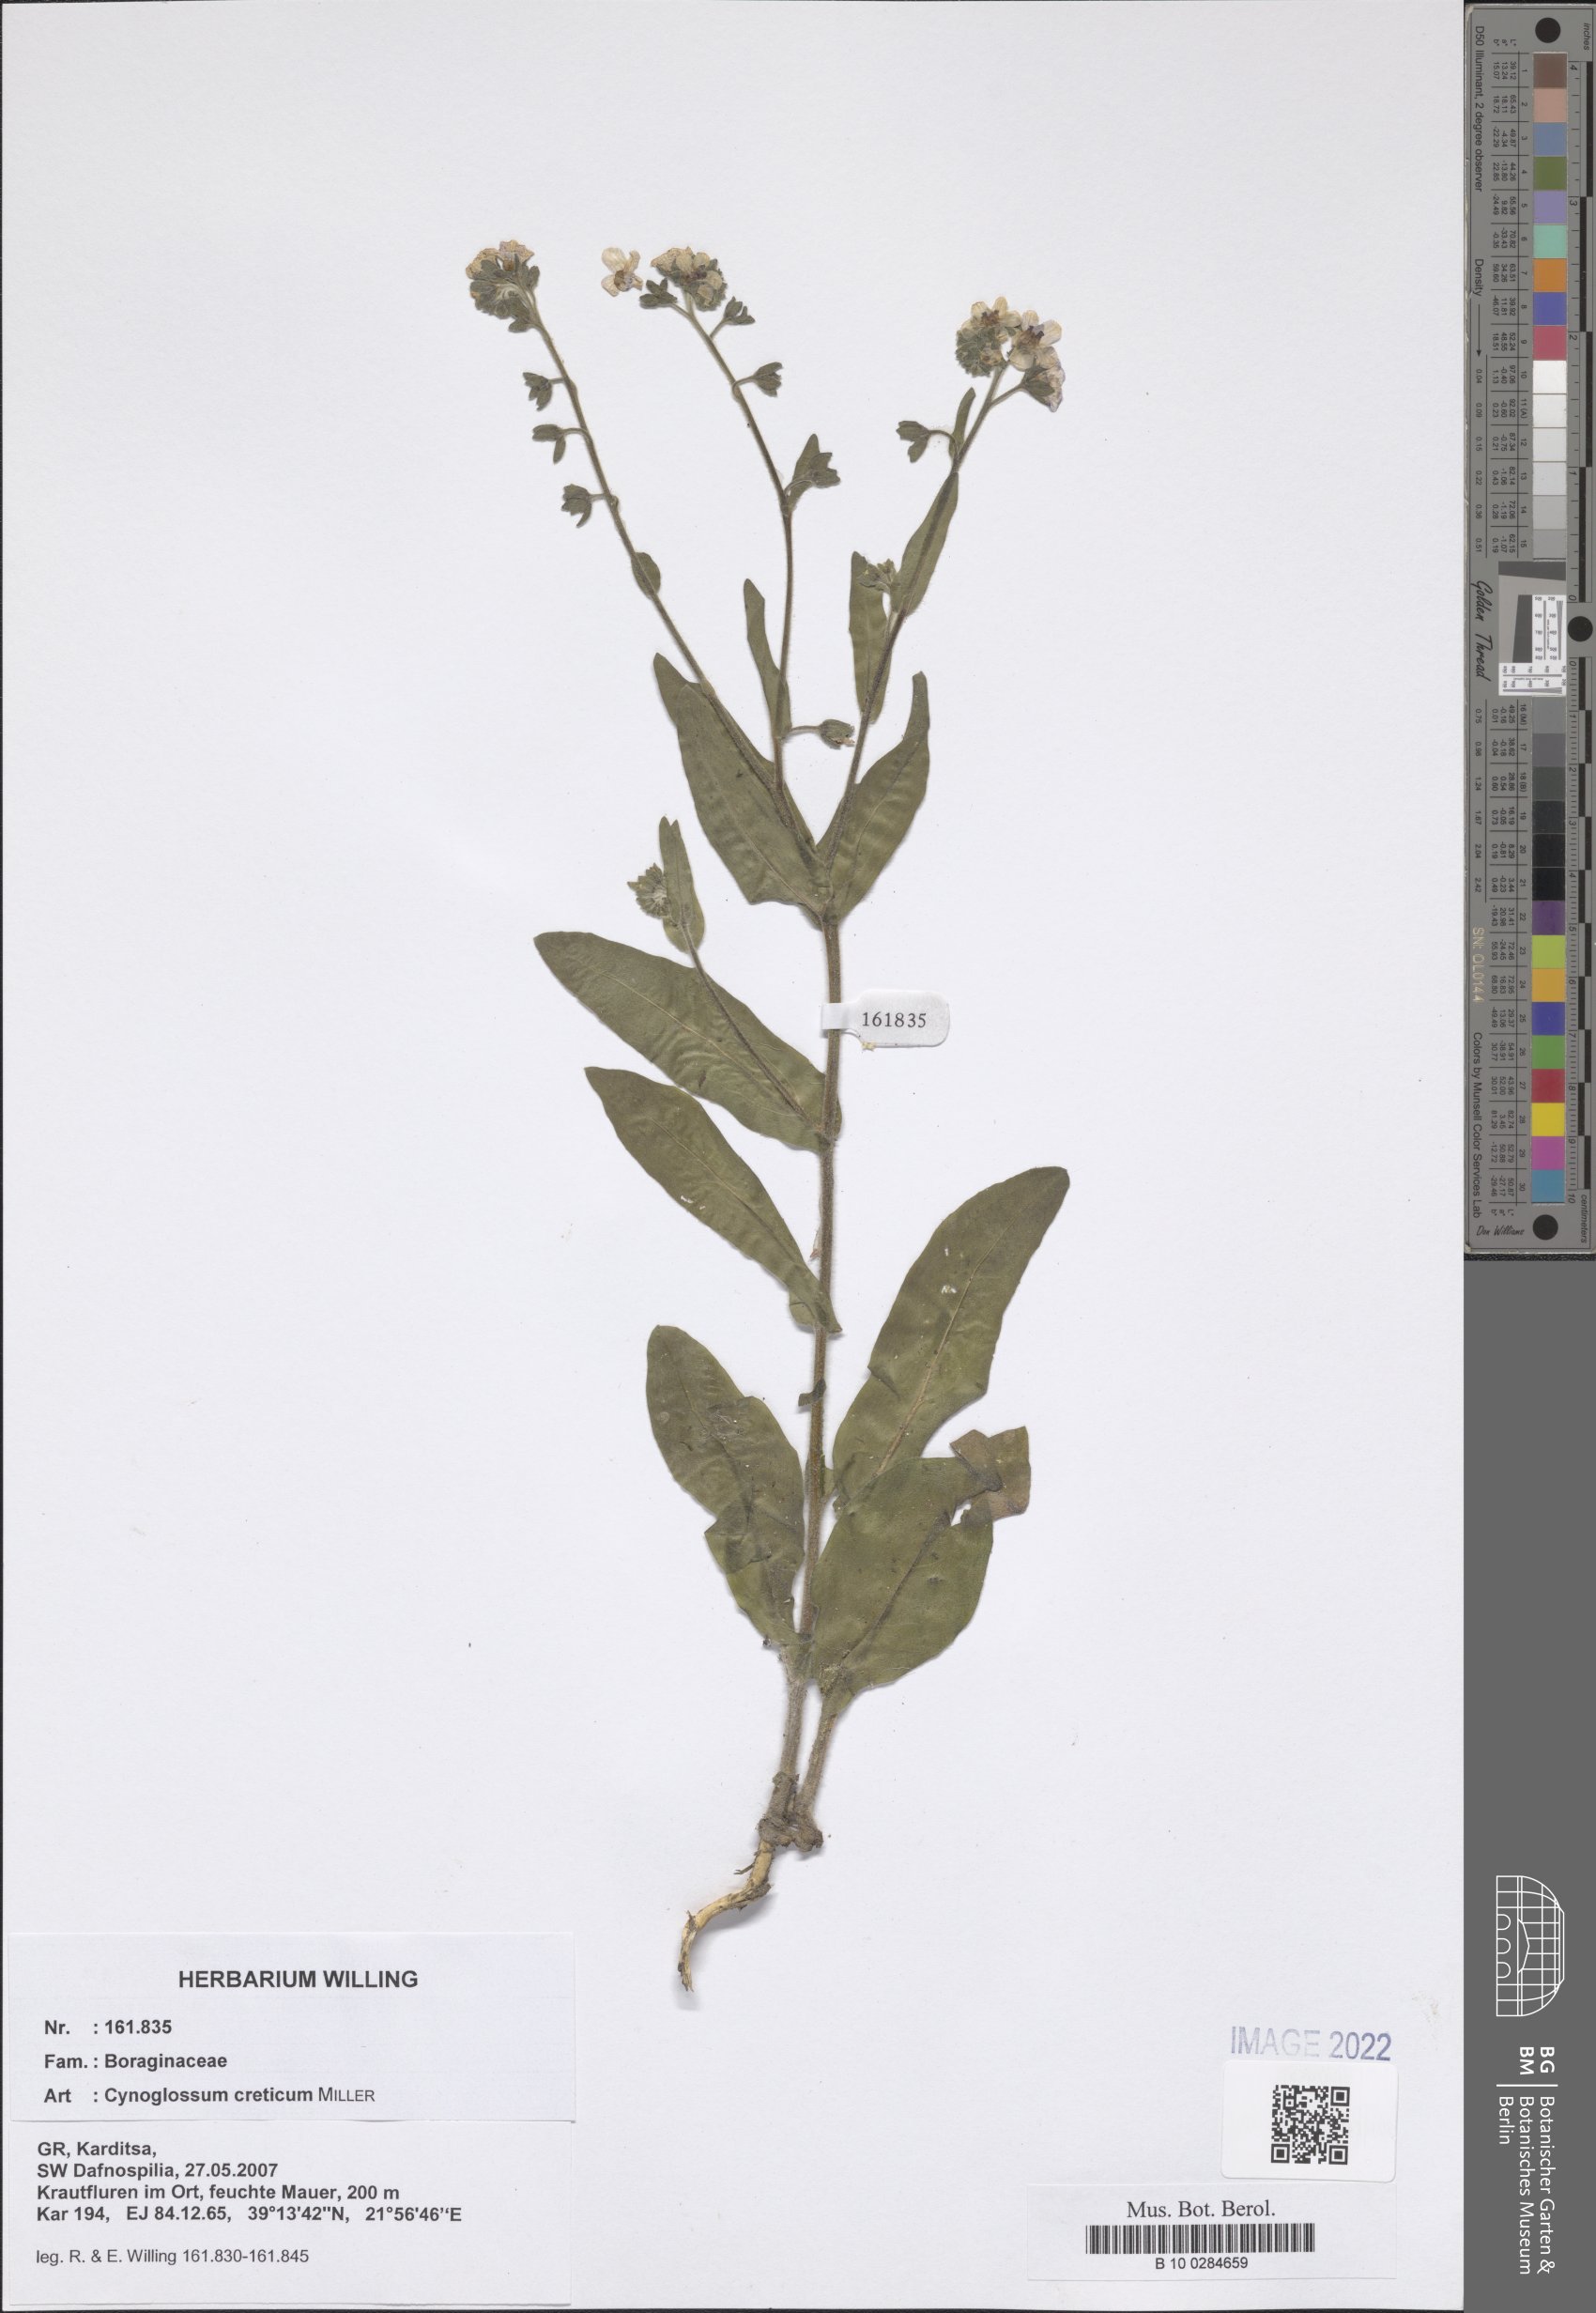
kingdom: Plantae
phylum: Tracheophyta
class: Magnoliopsida
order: Boraginales
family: Boraginaceae
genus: Cynoglossum
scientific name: Cynoglossum creticum
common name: Blue hound's tongue
